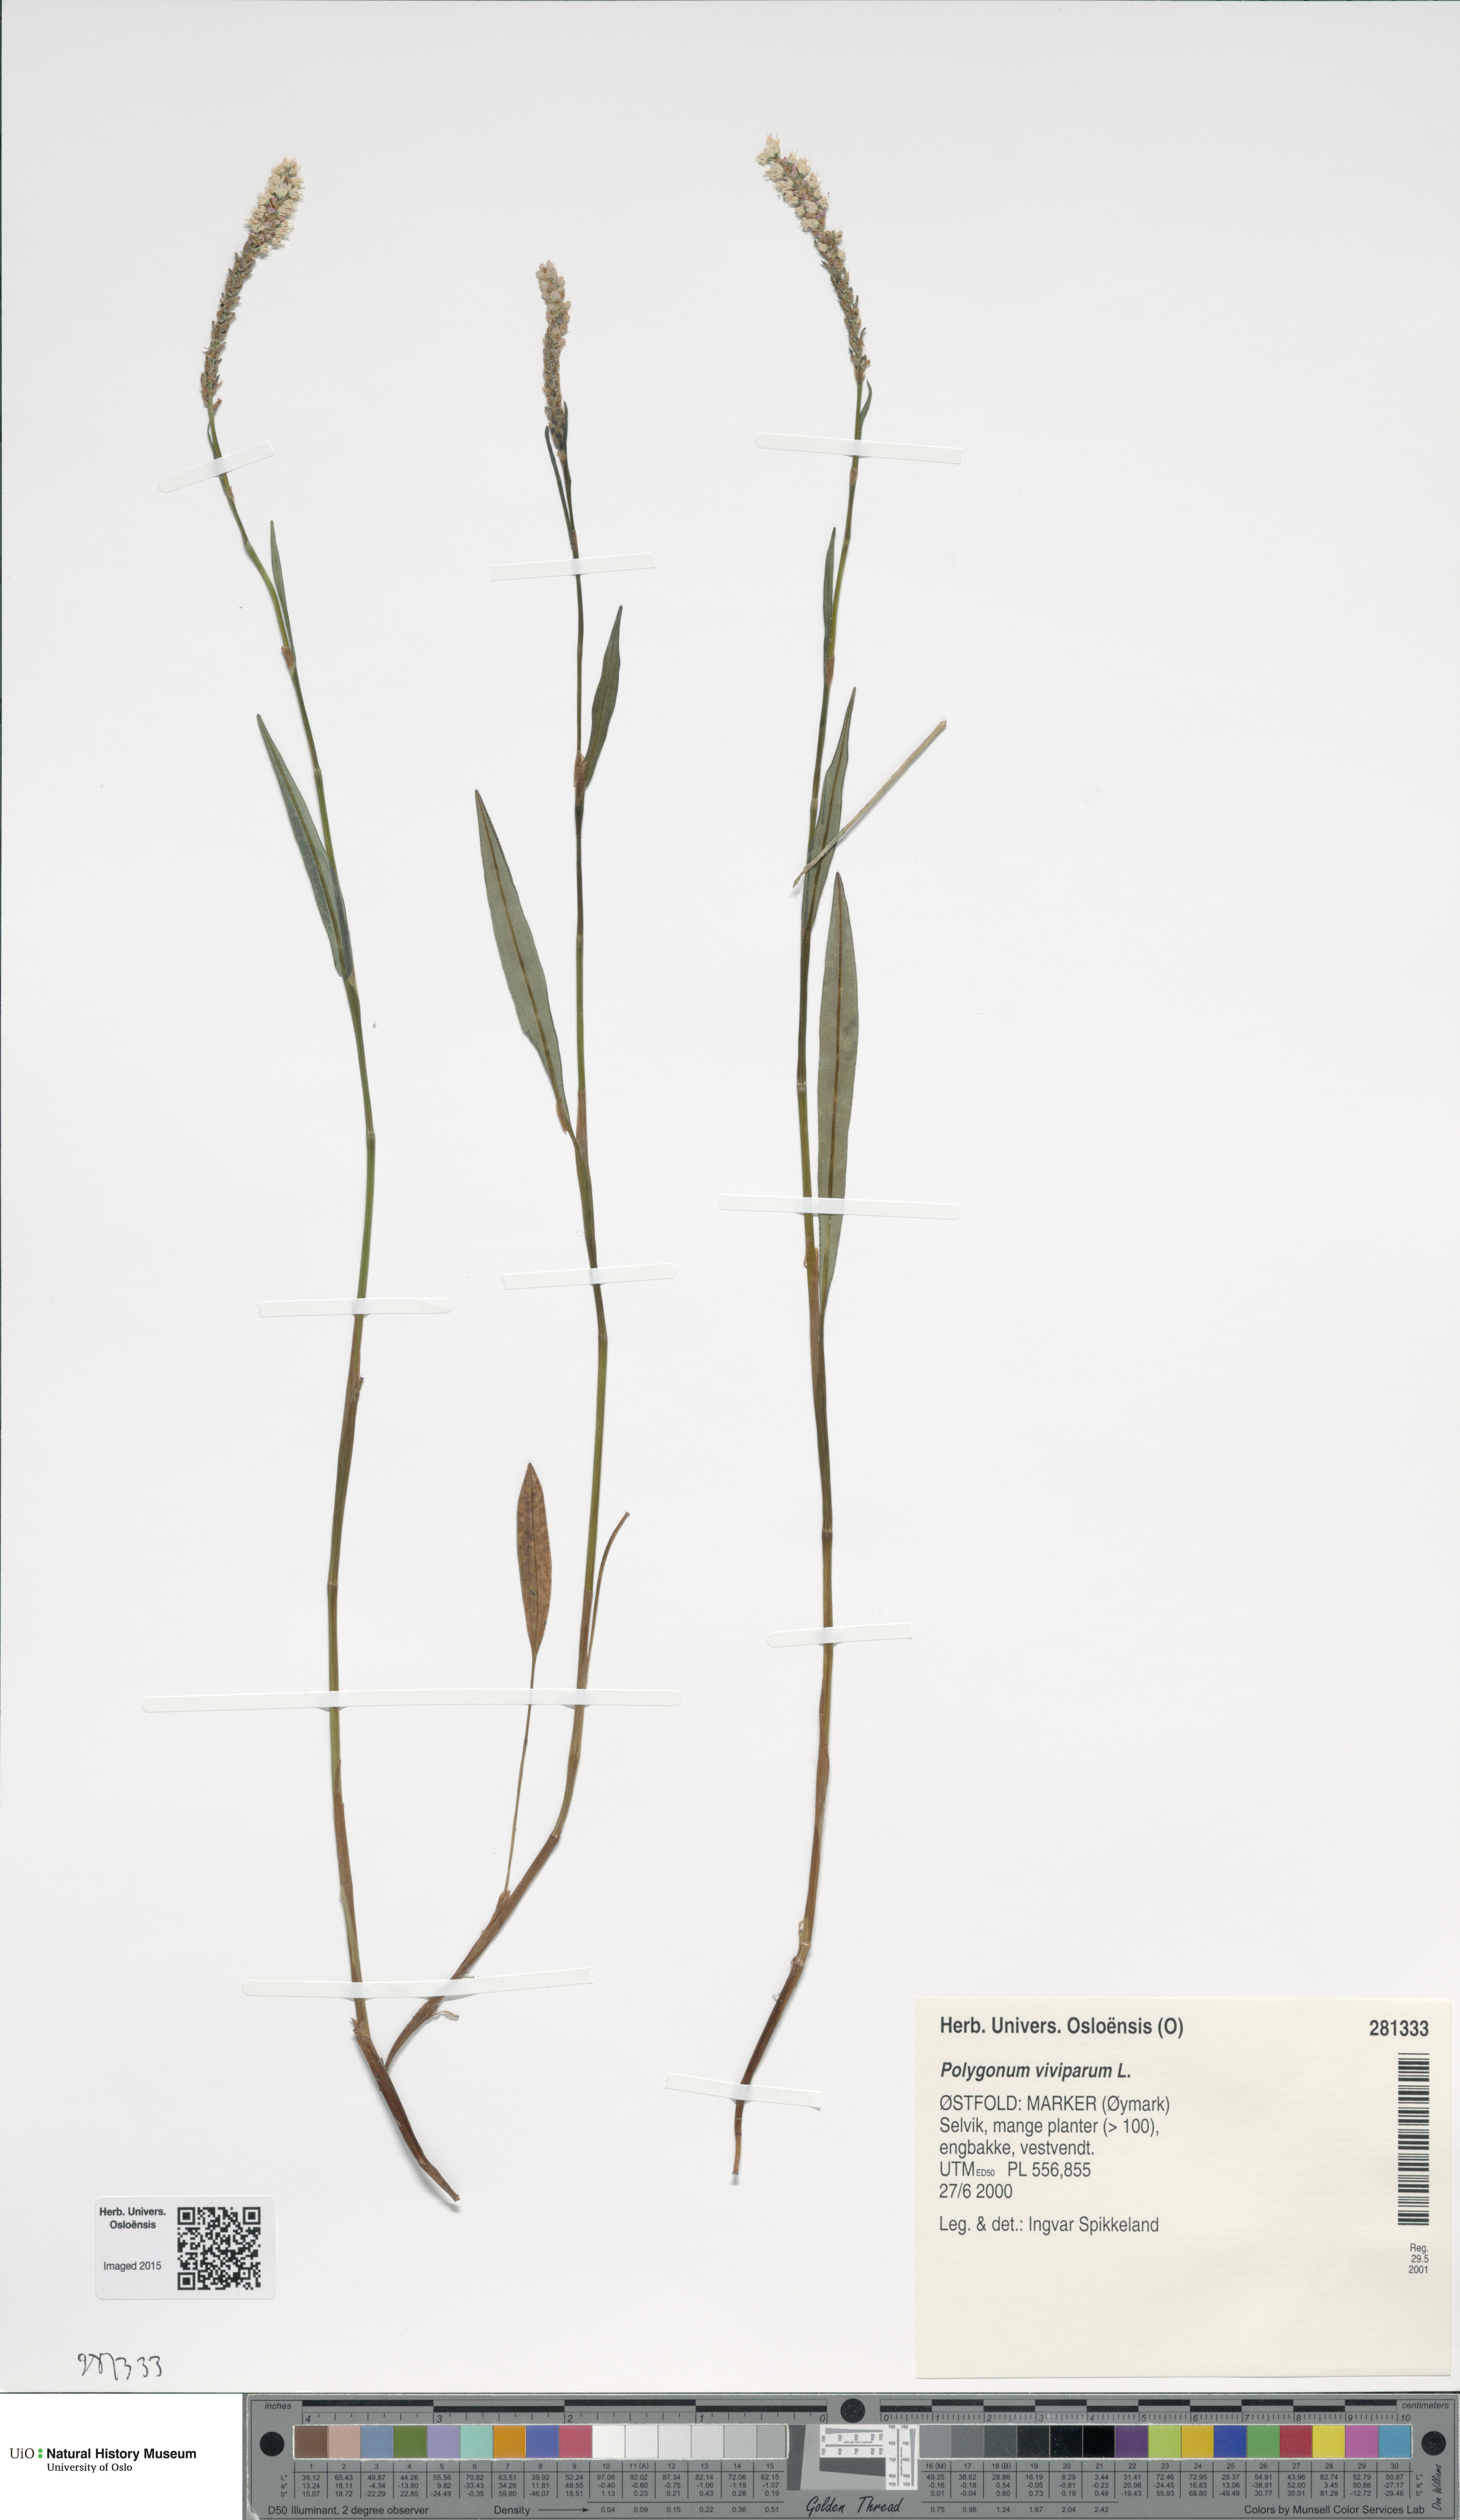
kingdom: Plantae
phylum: Tracheophyta
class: Magnoliopsida
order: Caryophyllales
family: Polygonaceae
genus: Bistorta
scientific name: Bistorta vivipara
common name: Alpine bistort
